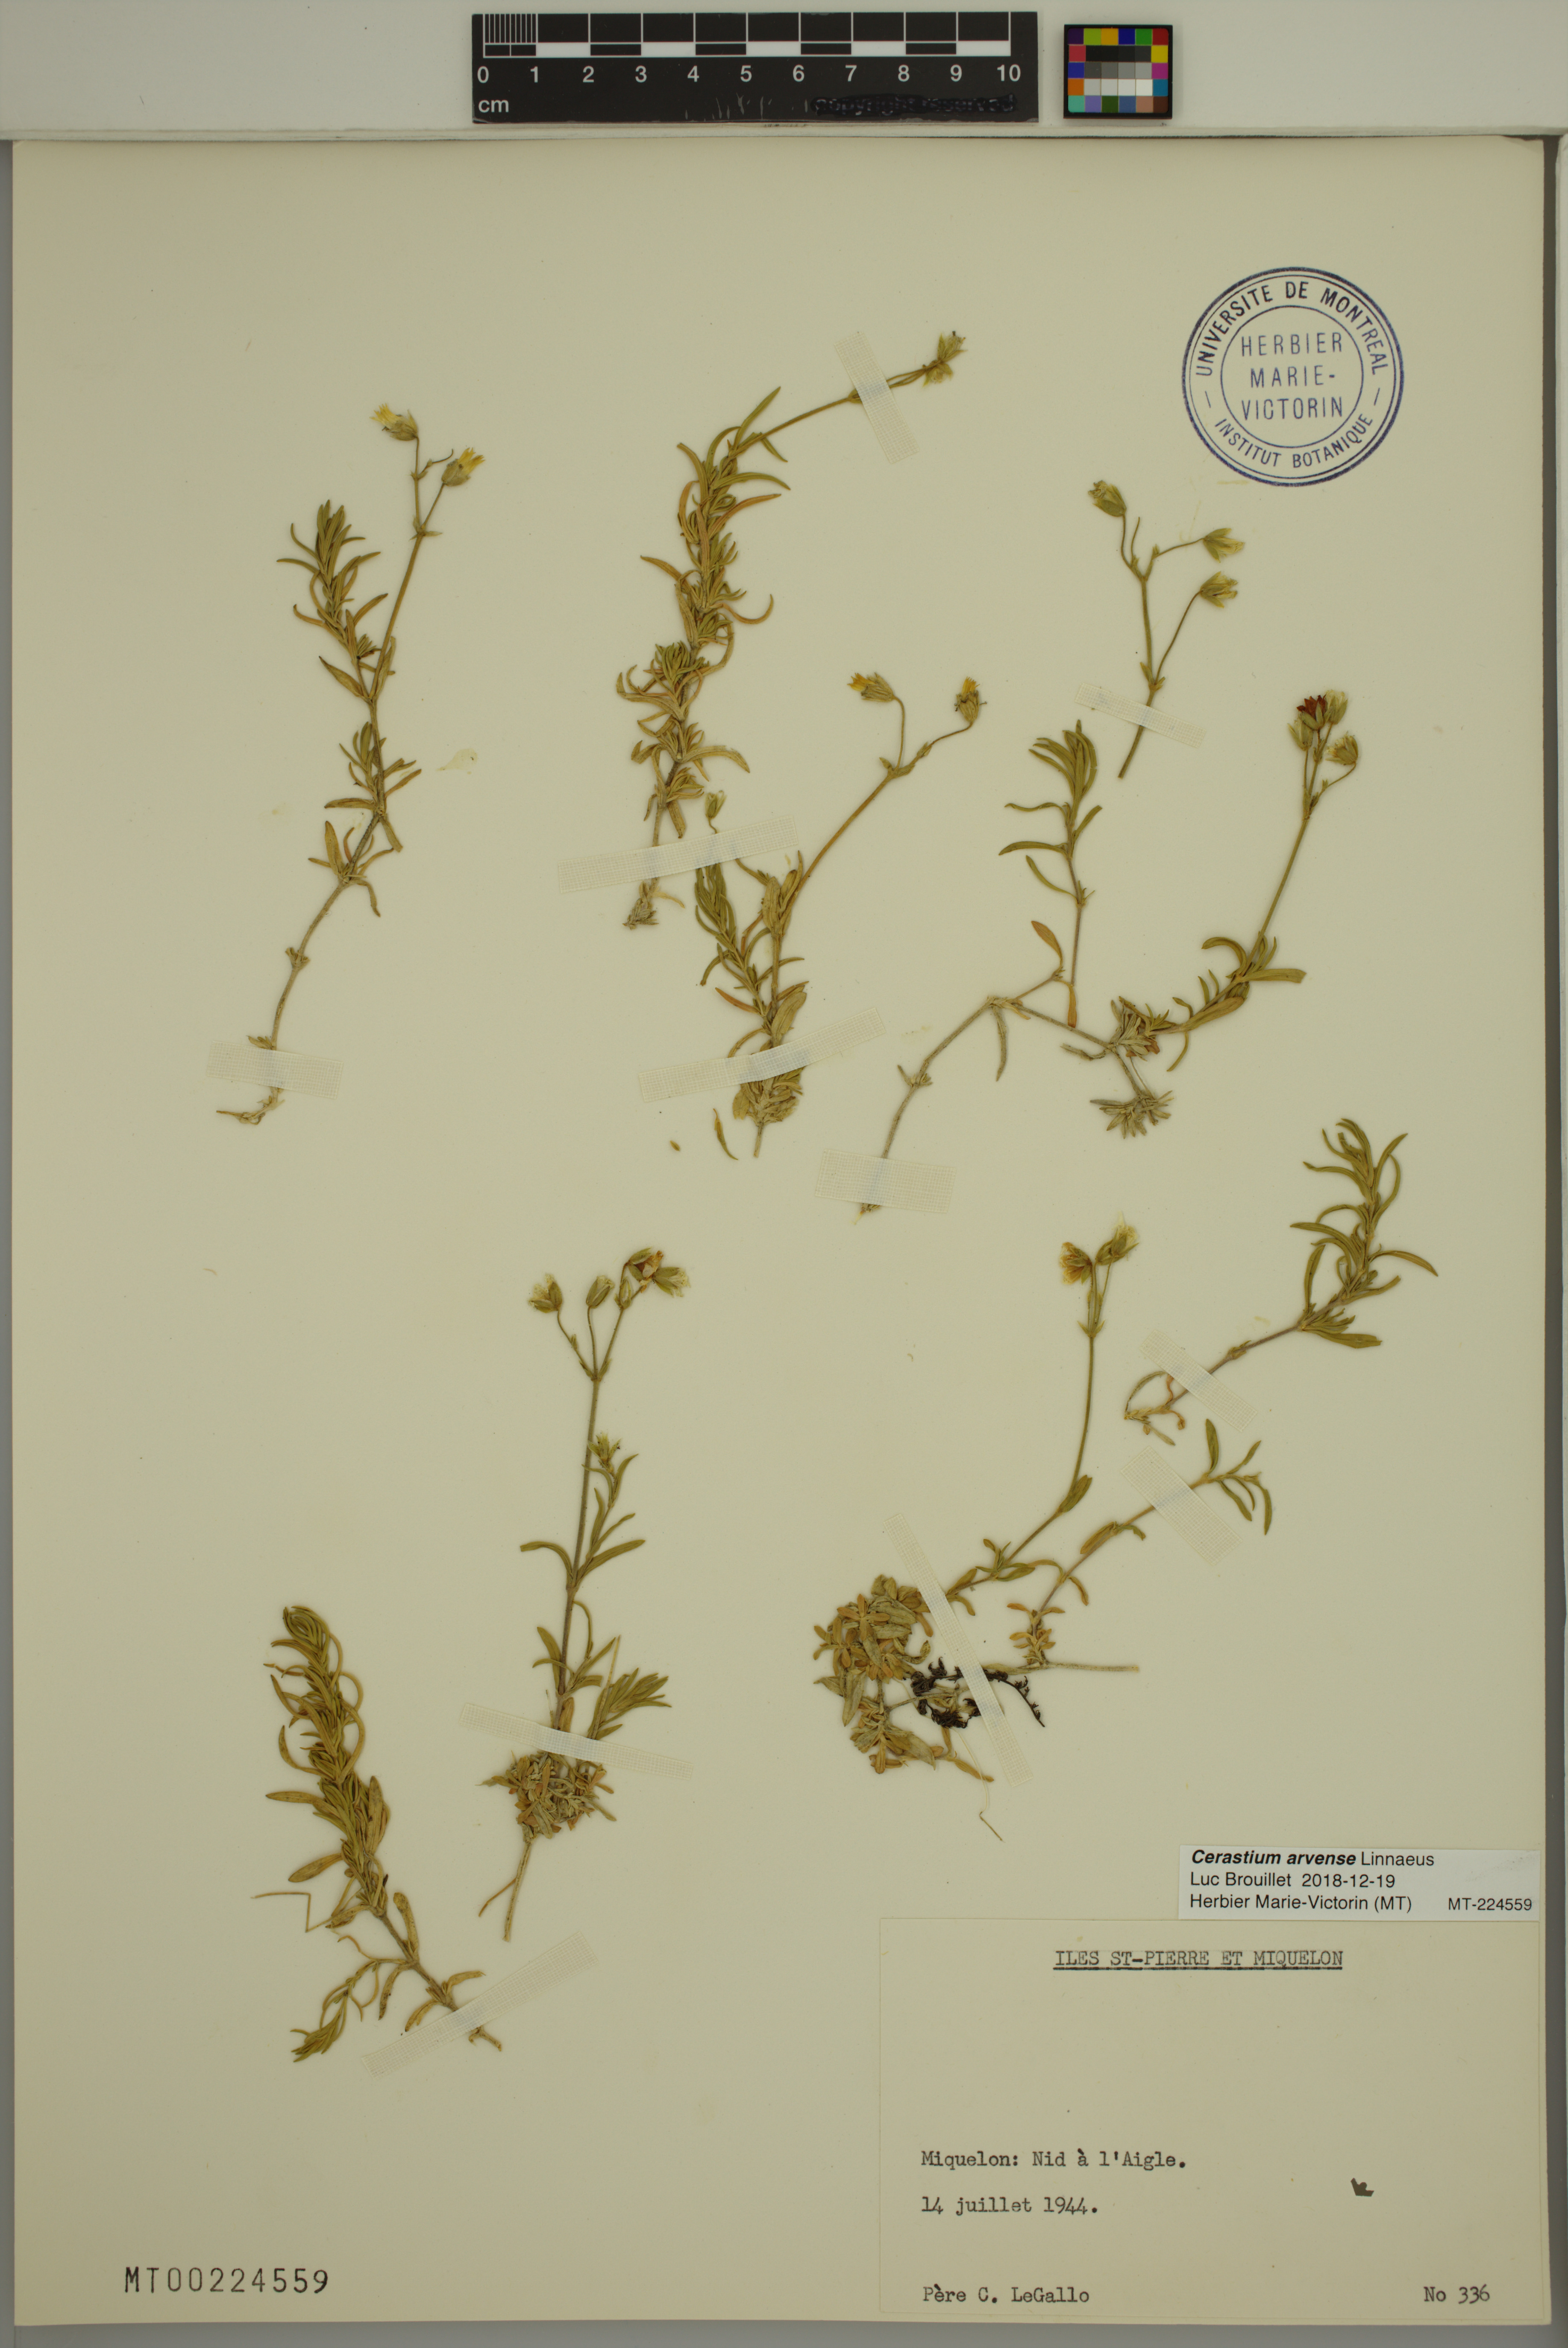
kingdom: Plantae
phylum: Tracheophyta
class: Magnoliopsida
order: Caryophyllales
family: Caryophyllaceae
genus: Cerastium
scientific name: Cerastium arvense
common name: Field mouse-ear
